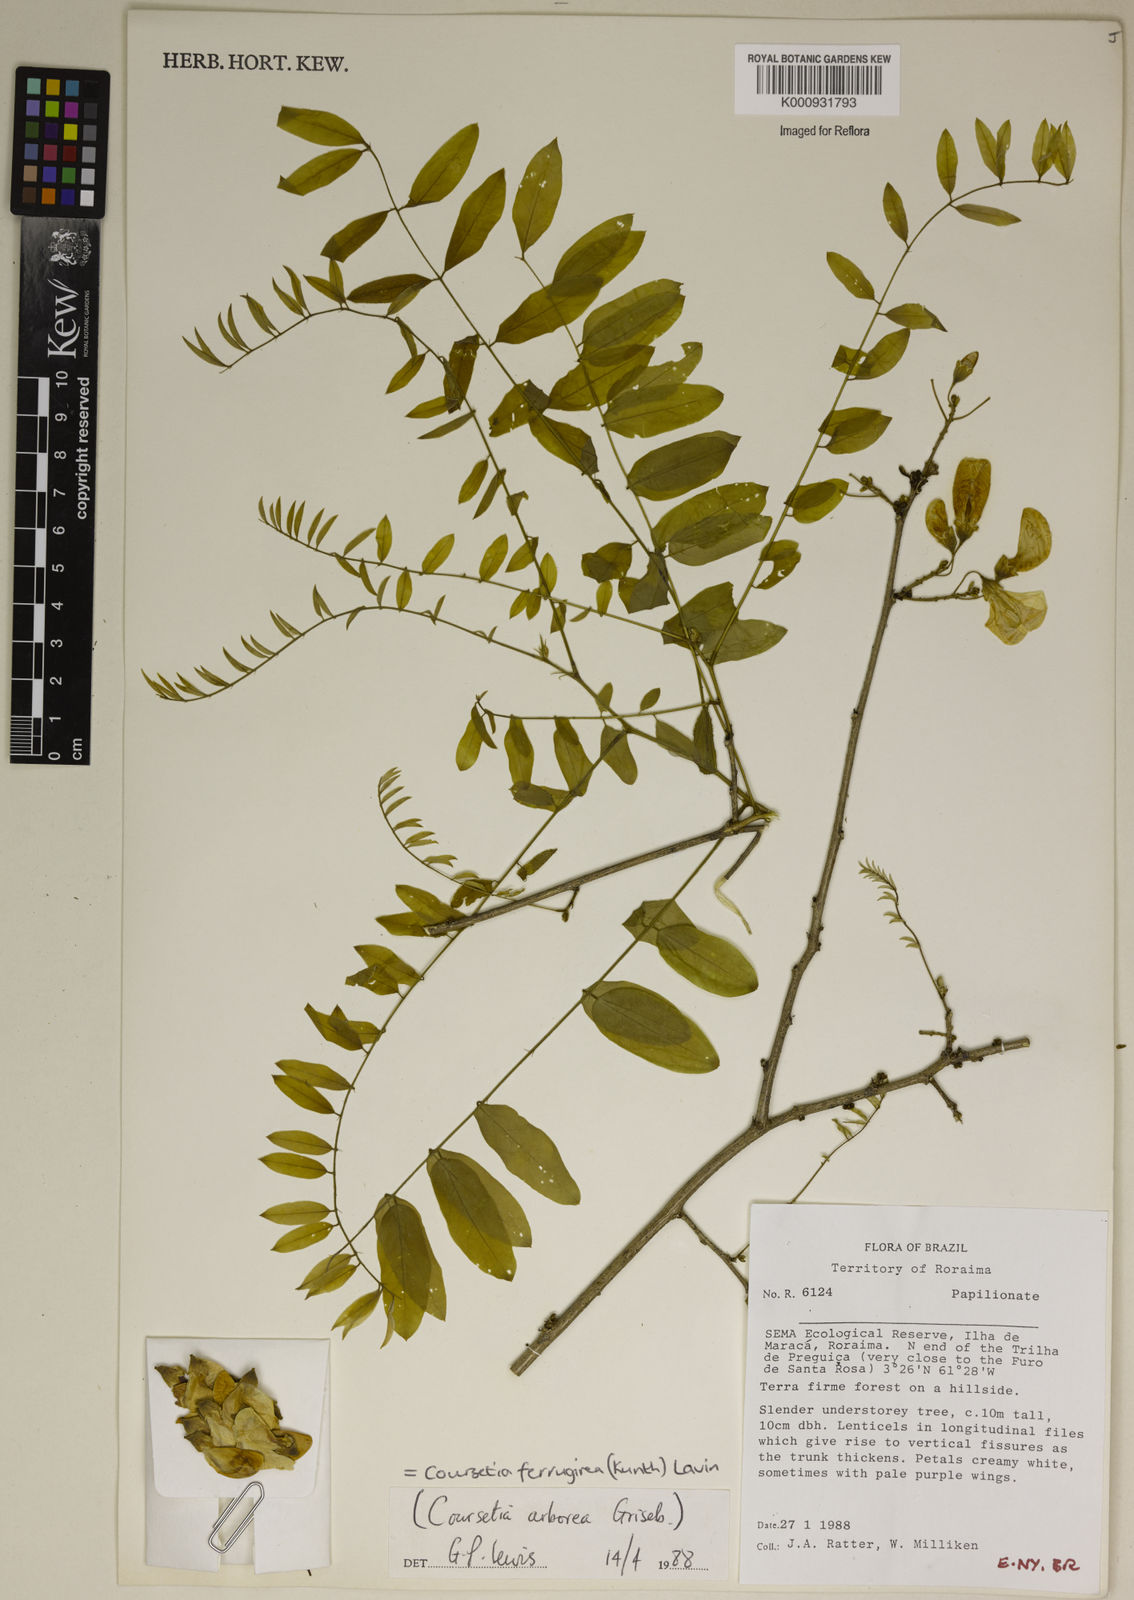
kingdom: Plantae
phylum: Tracheophyta
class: Magnoliopsida
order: Fabales
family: Fabaceae
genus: Coursetia
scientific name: Coursetia ferruginea
